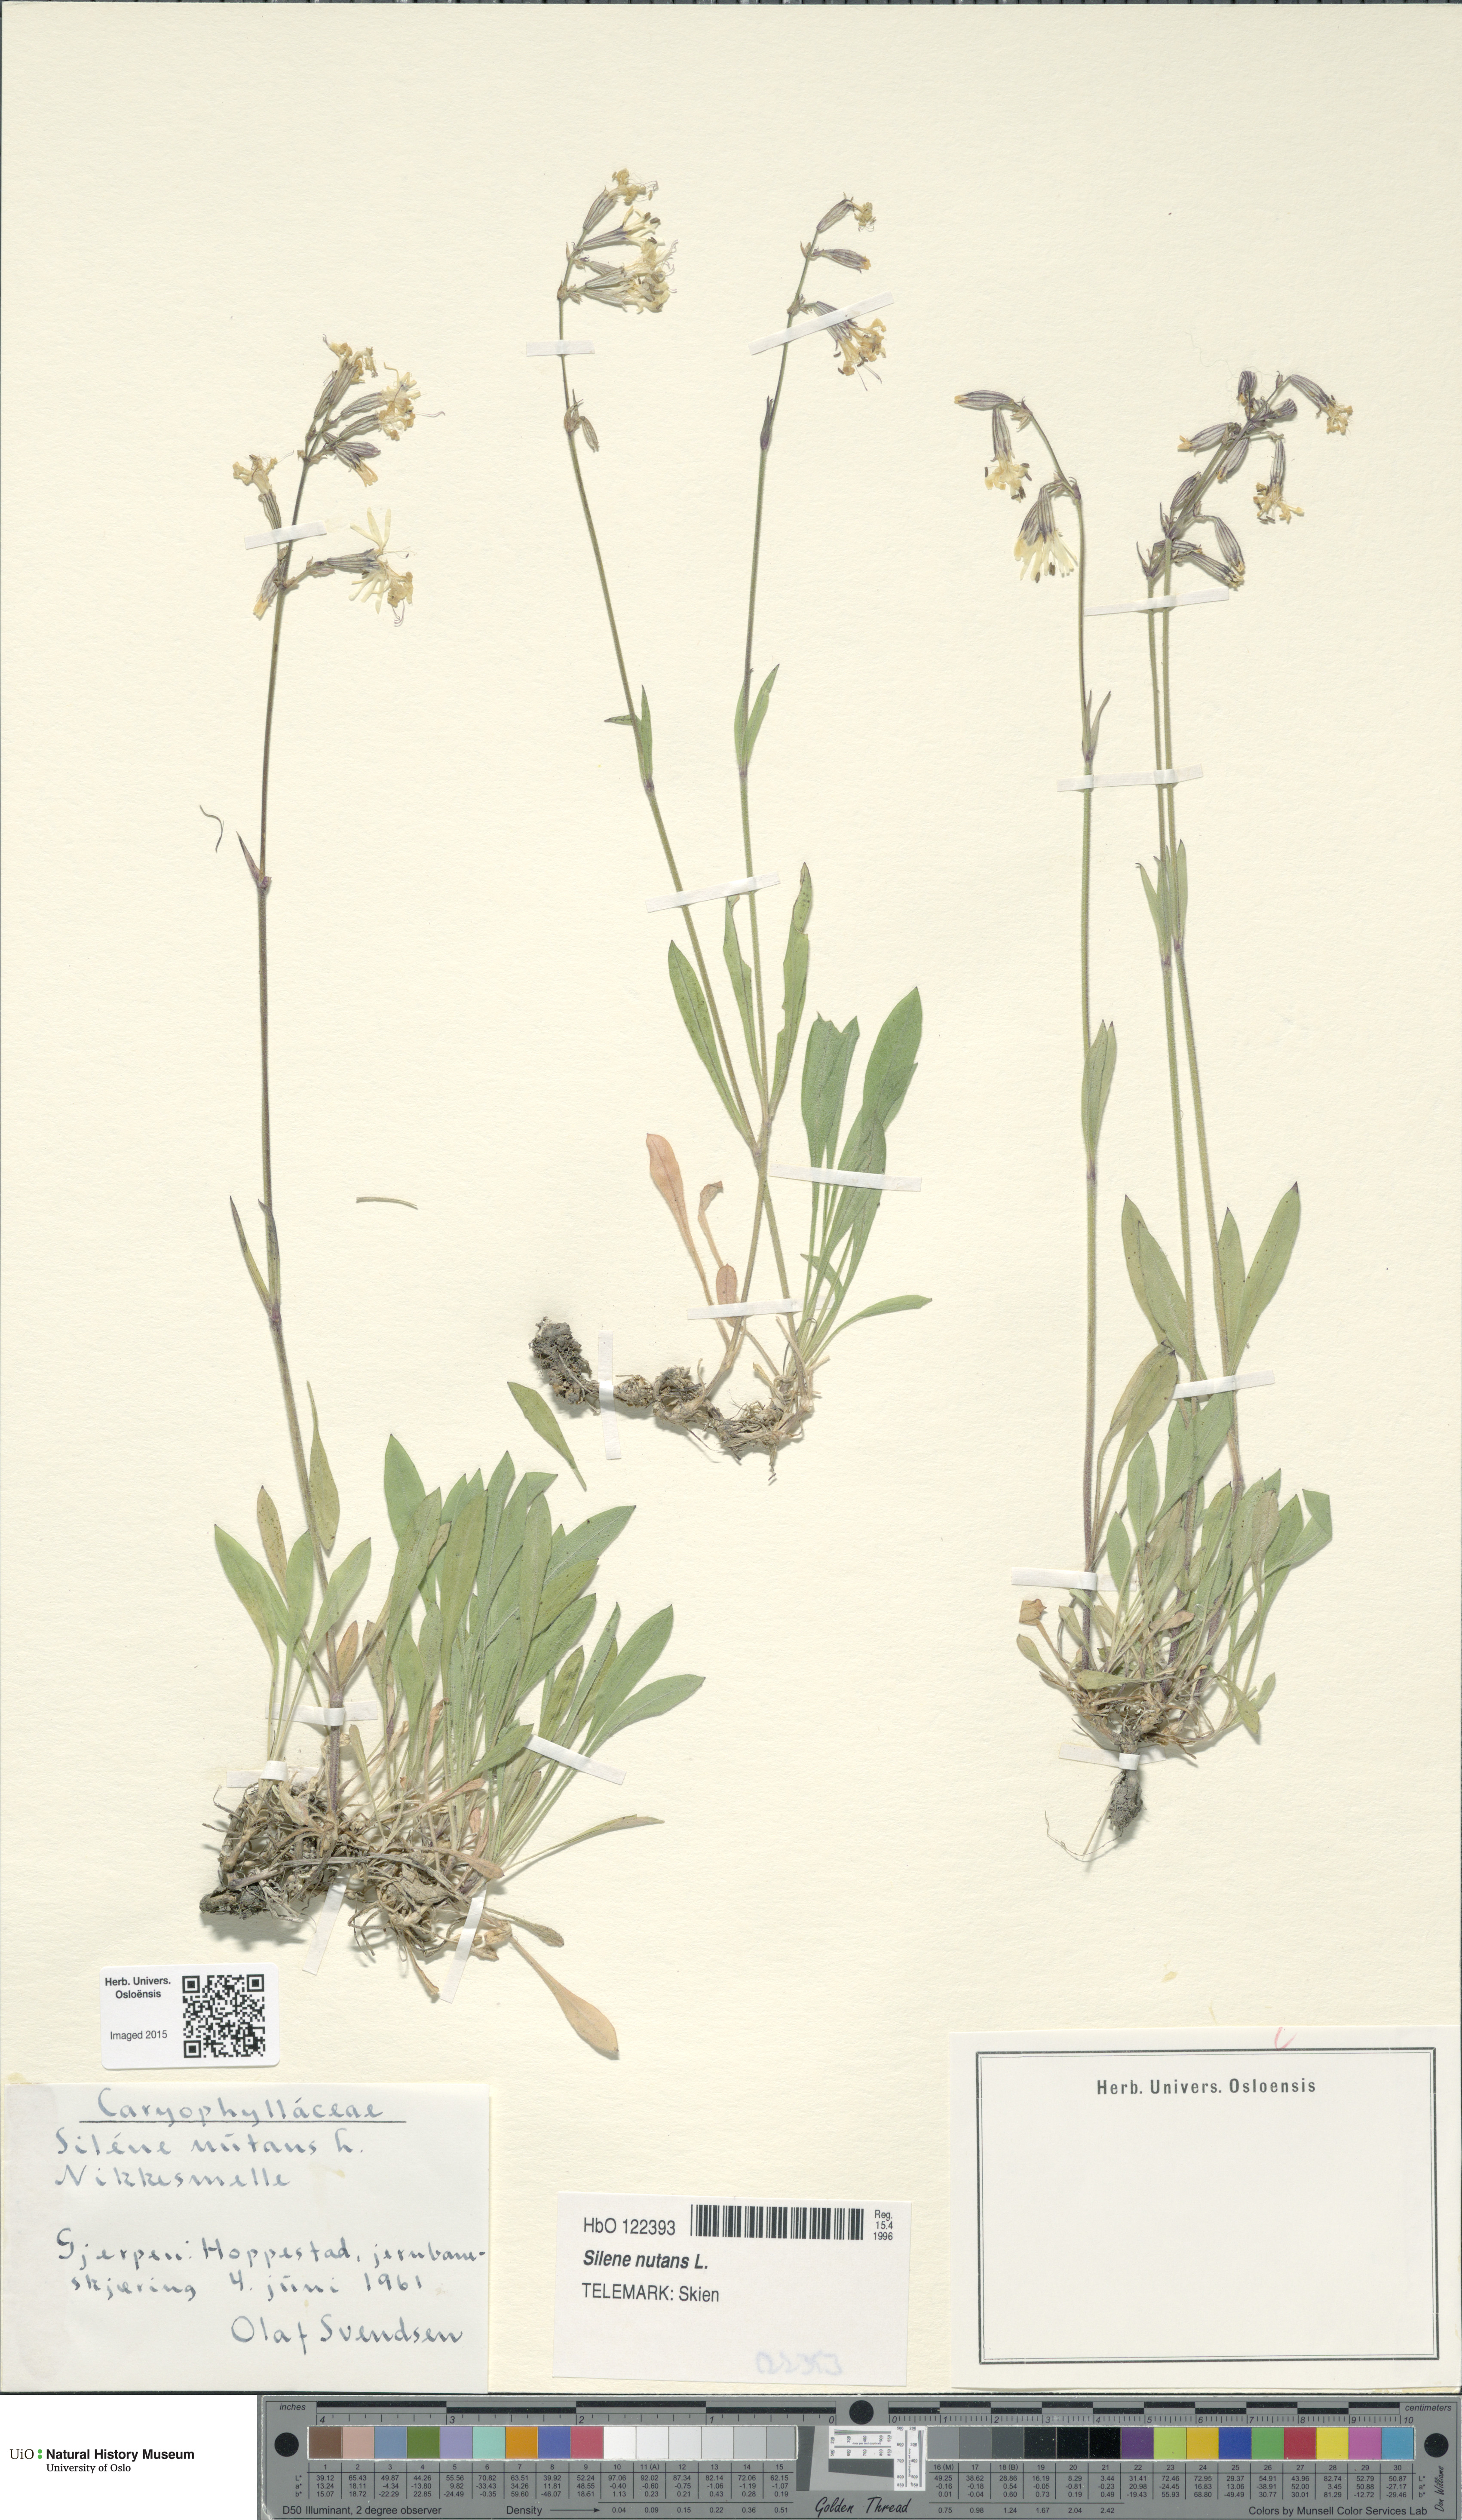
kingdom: Plantae
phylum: Tracheophyta
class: Magnoliopsida
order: Caryophyllales
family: Caryophyllaceae
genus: Silene
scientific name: Silene nutans
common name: Nottingham catchfly
